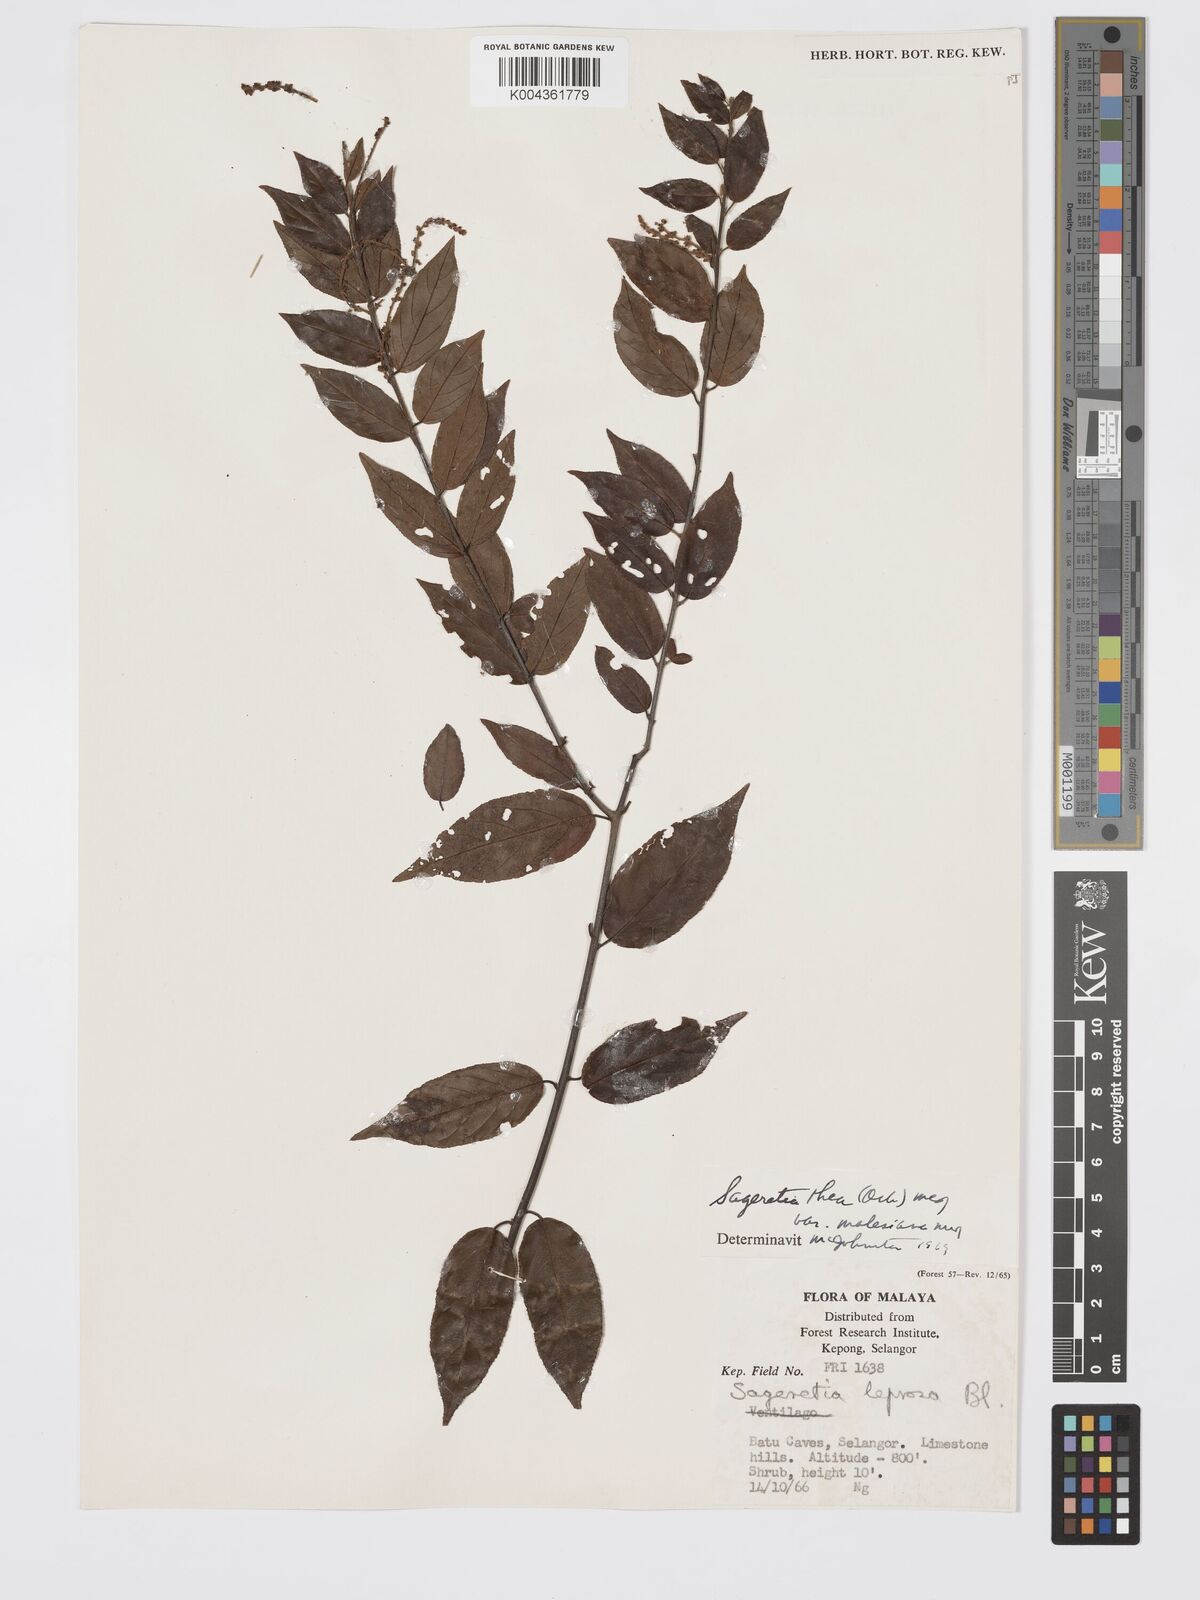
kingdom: Plantae
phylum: Tracheophyta
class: Magnoliopsida
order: Rosales
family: Rhamnaceae
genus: Sageretia
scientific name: Sageretia parviflora
